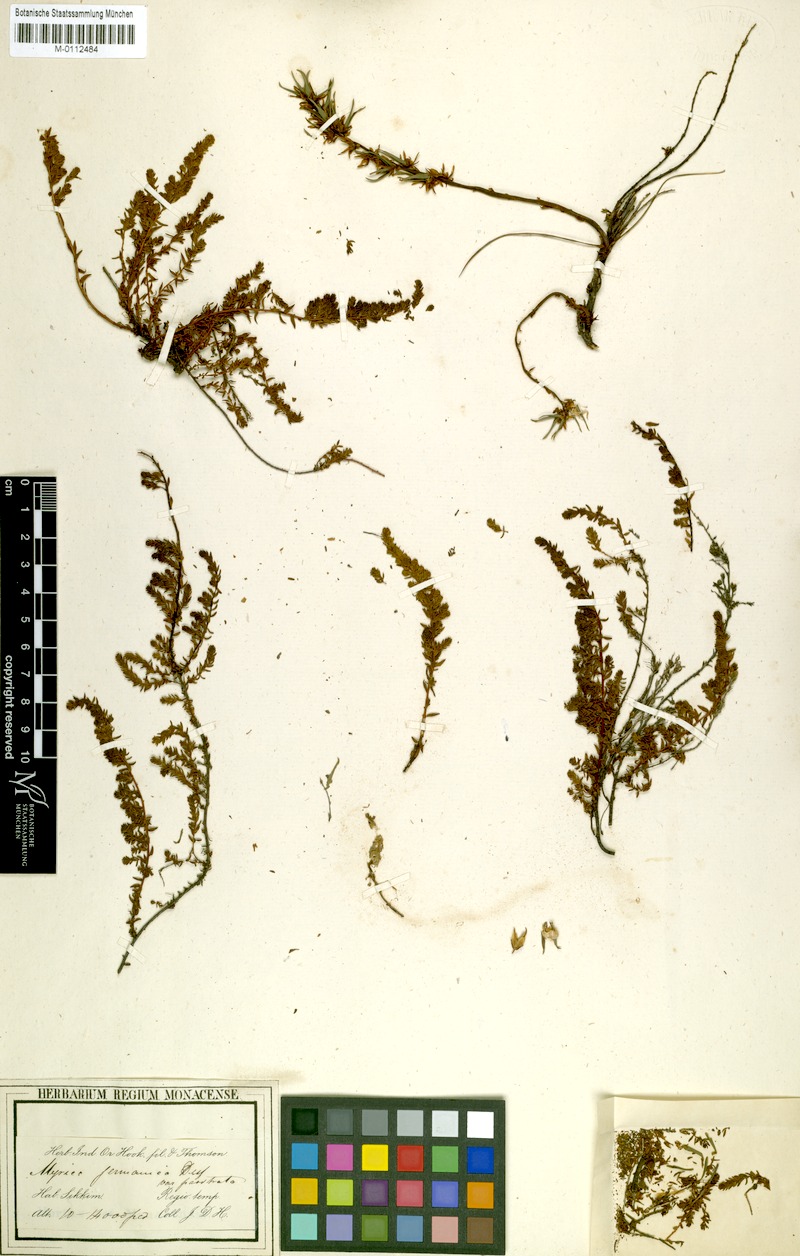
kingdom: Plantae
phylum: Tracheophyta
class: Magnoliopsida
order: Caryophyllales
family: Tamaricaceae
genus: Myricaria
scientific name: Myricaria prostrata
